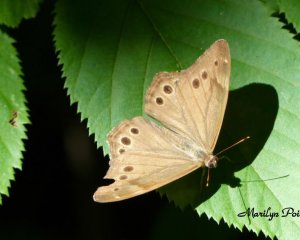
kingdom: Animalia
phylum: Arthropoda
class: Insecta
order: Lepidoptera
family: Nymphalidae
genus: Lethe
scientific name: Lethe anthedon
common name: Northern Pearly-Eye
